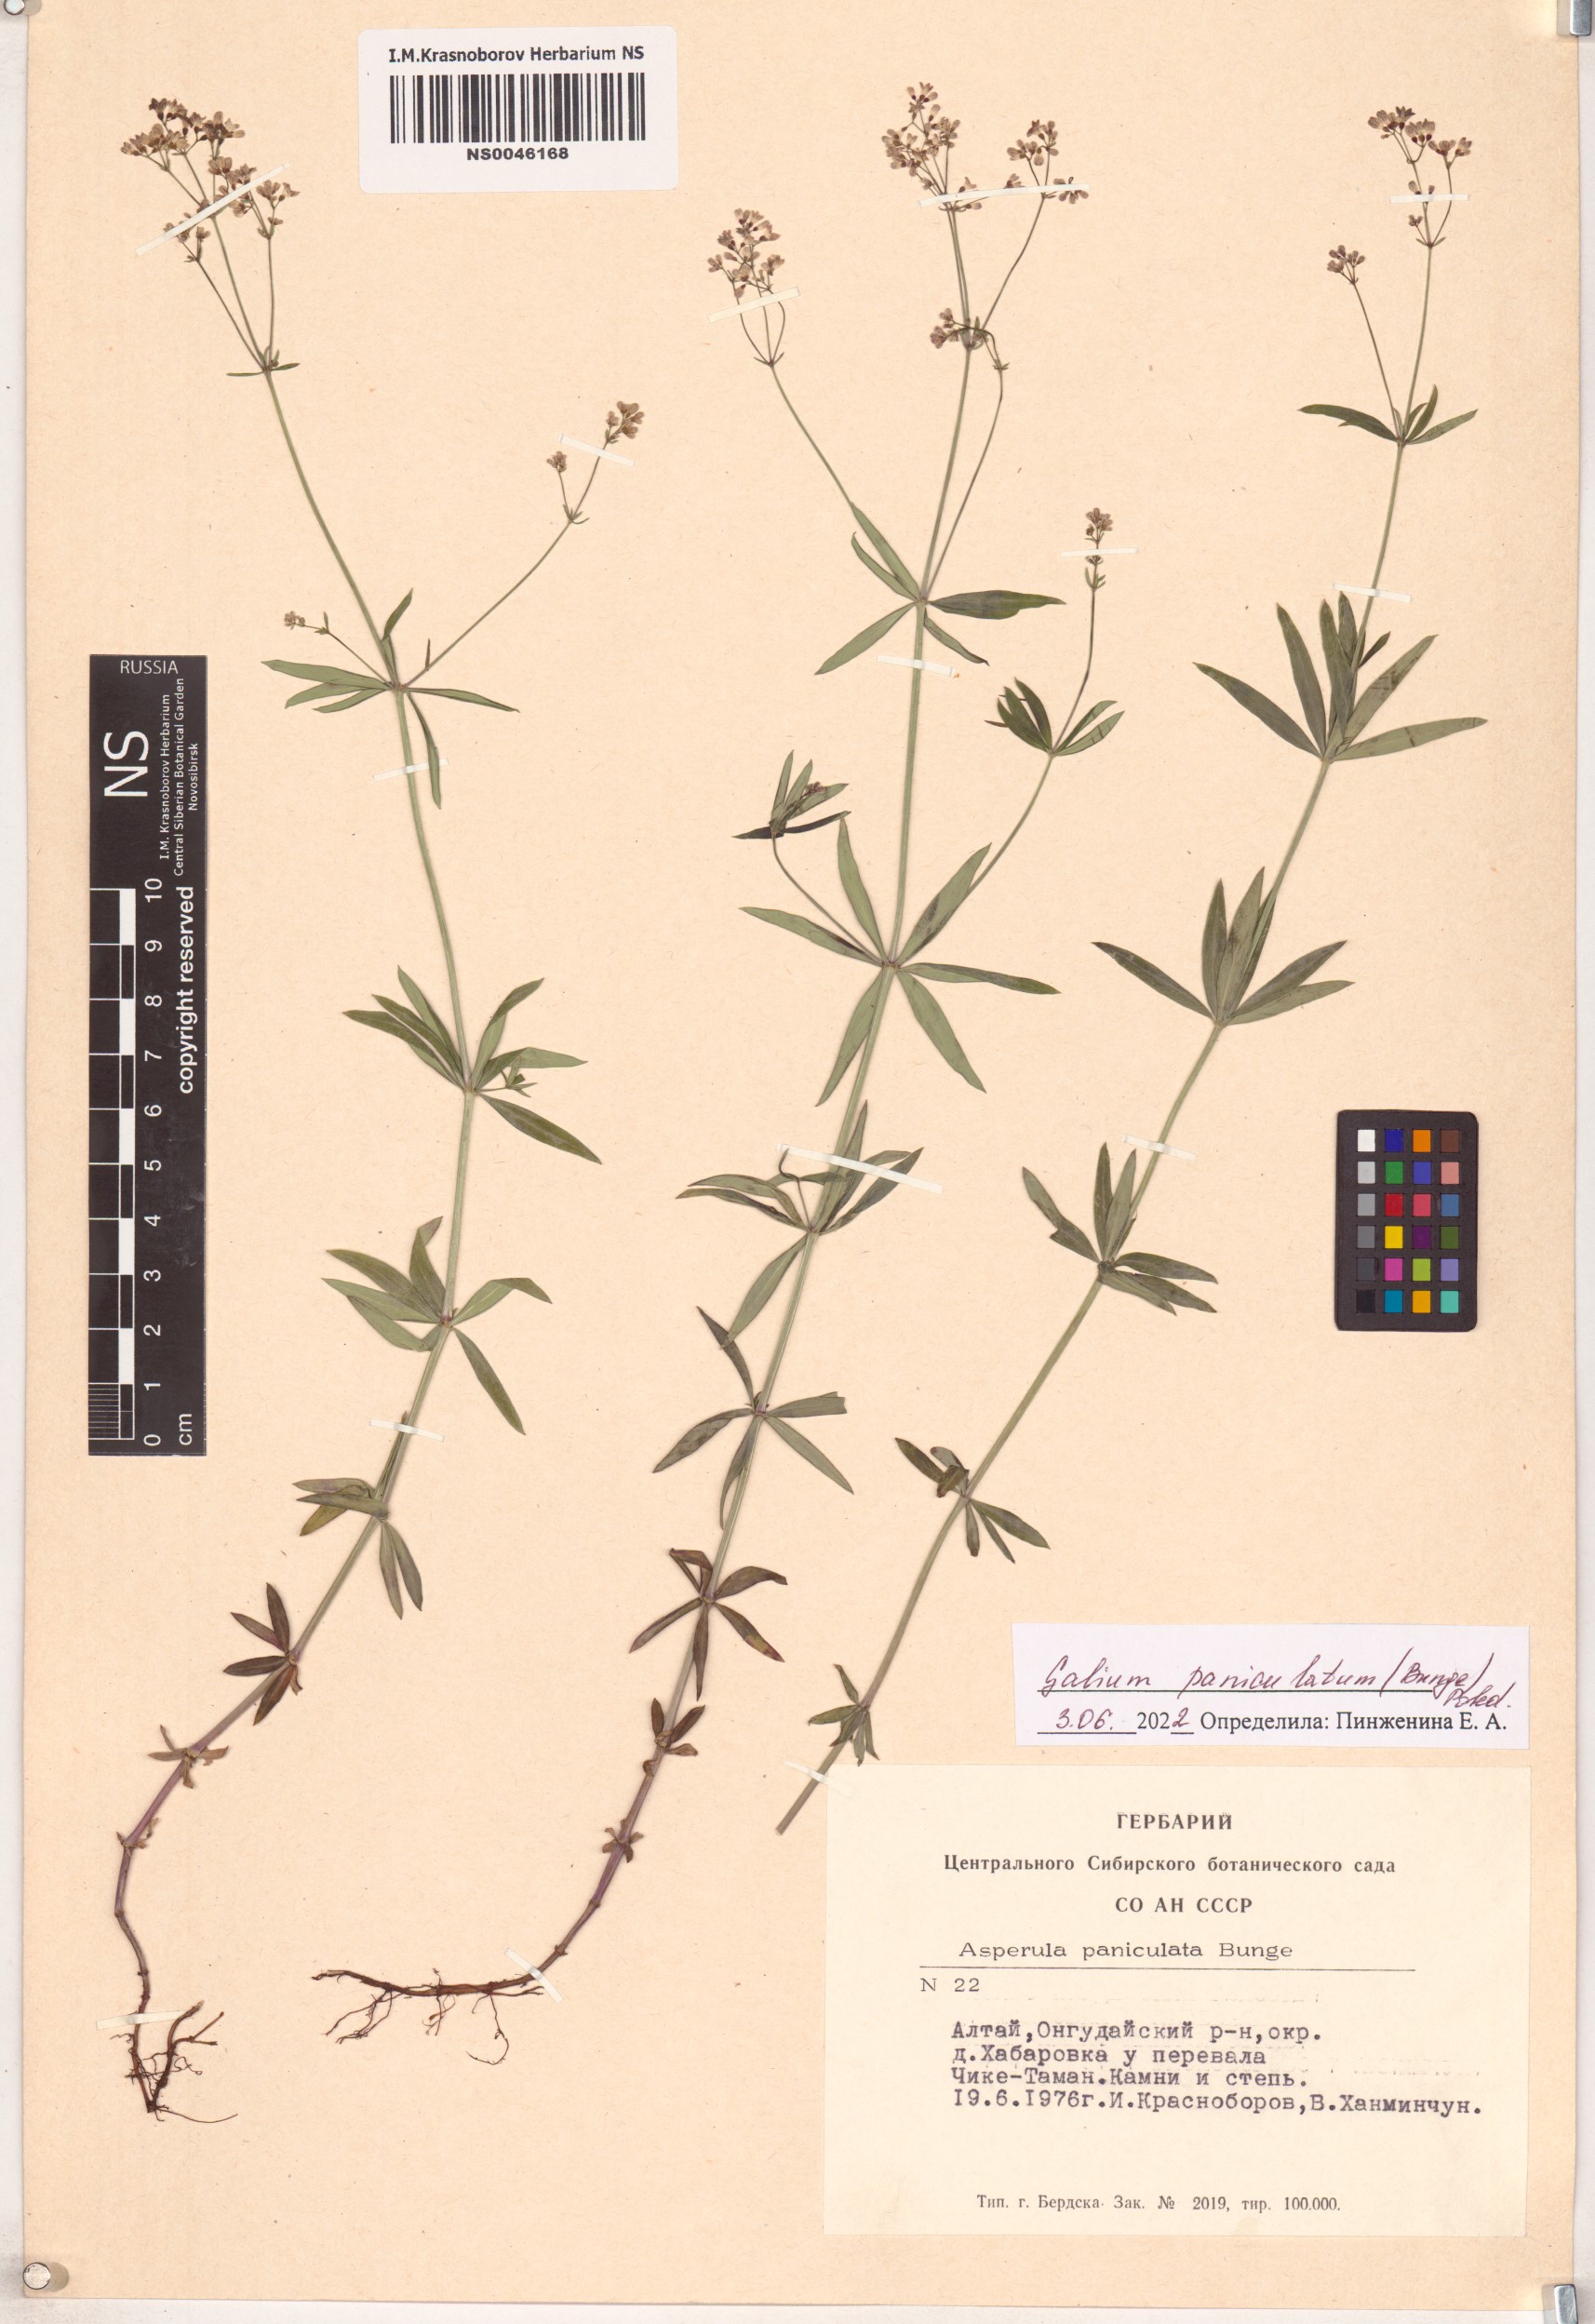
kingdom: Plantae
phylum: Tracheophyta
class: Magnoliopsida
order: Gentianales
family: Rubiaceae
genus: Galium
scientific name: Galium paniculatum
